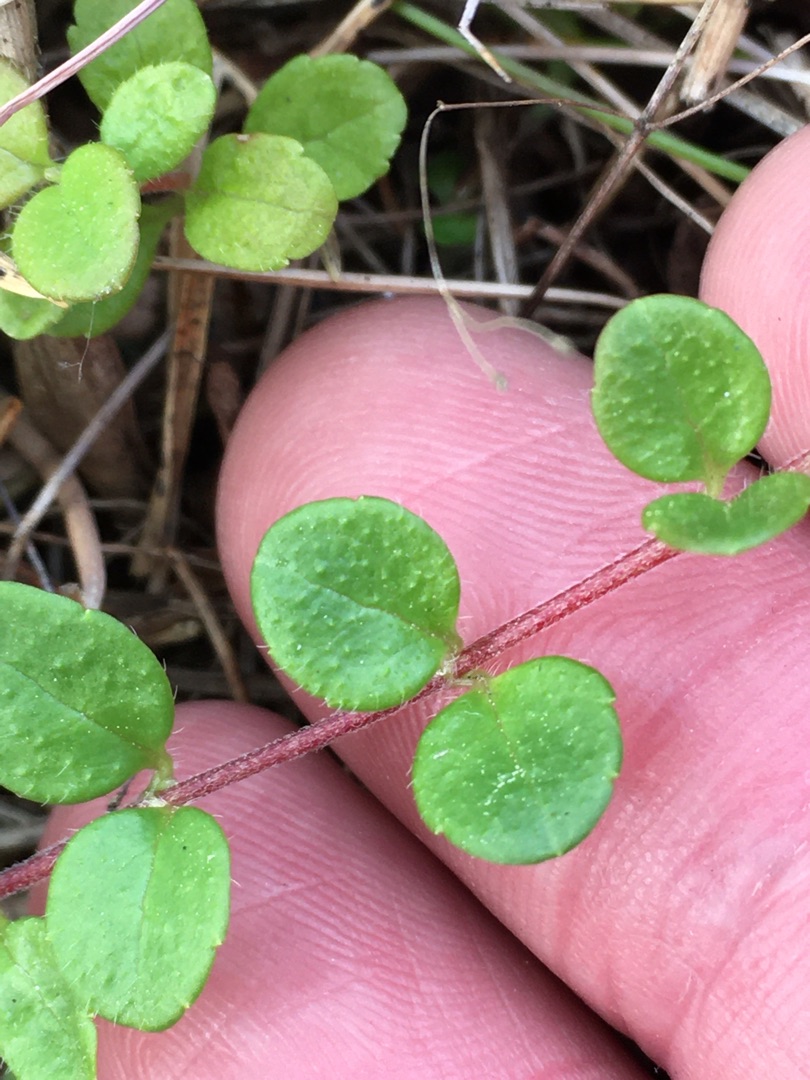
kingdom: Plantae
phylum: Tracheophyta
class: Magnoliopsida
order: Dipsacales
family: Caprifoliaceae
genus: Linnaea
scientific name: Linnaea borealis
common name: Linnæa
